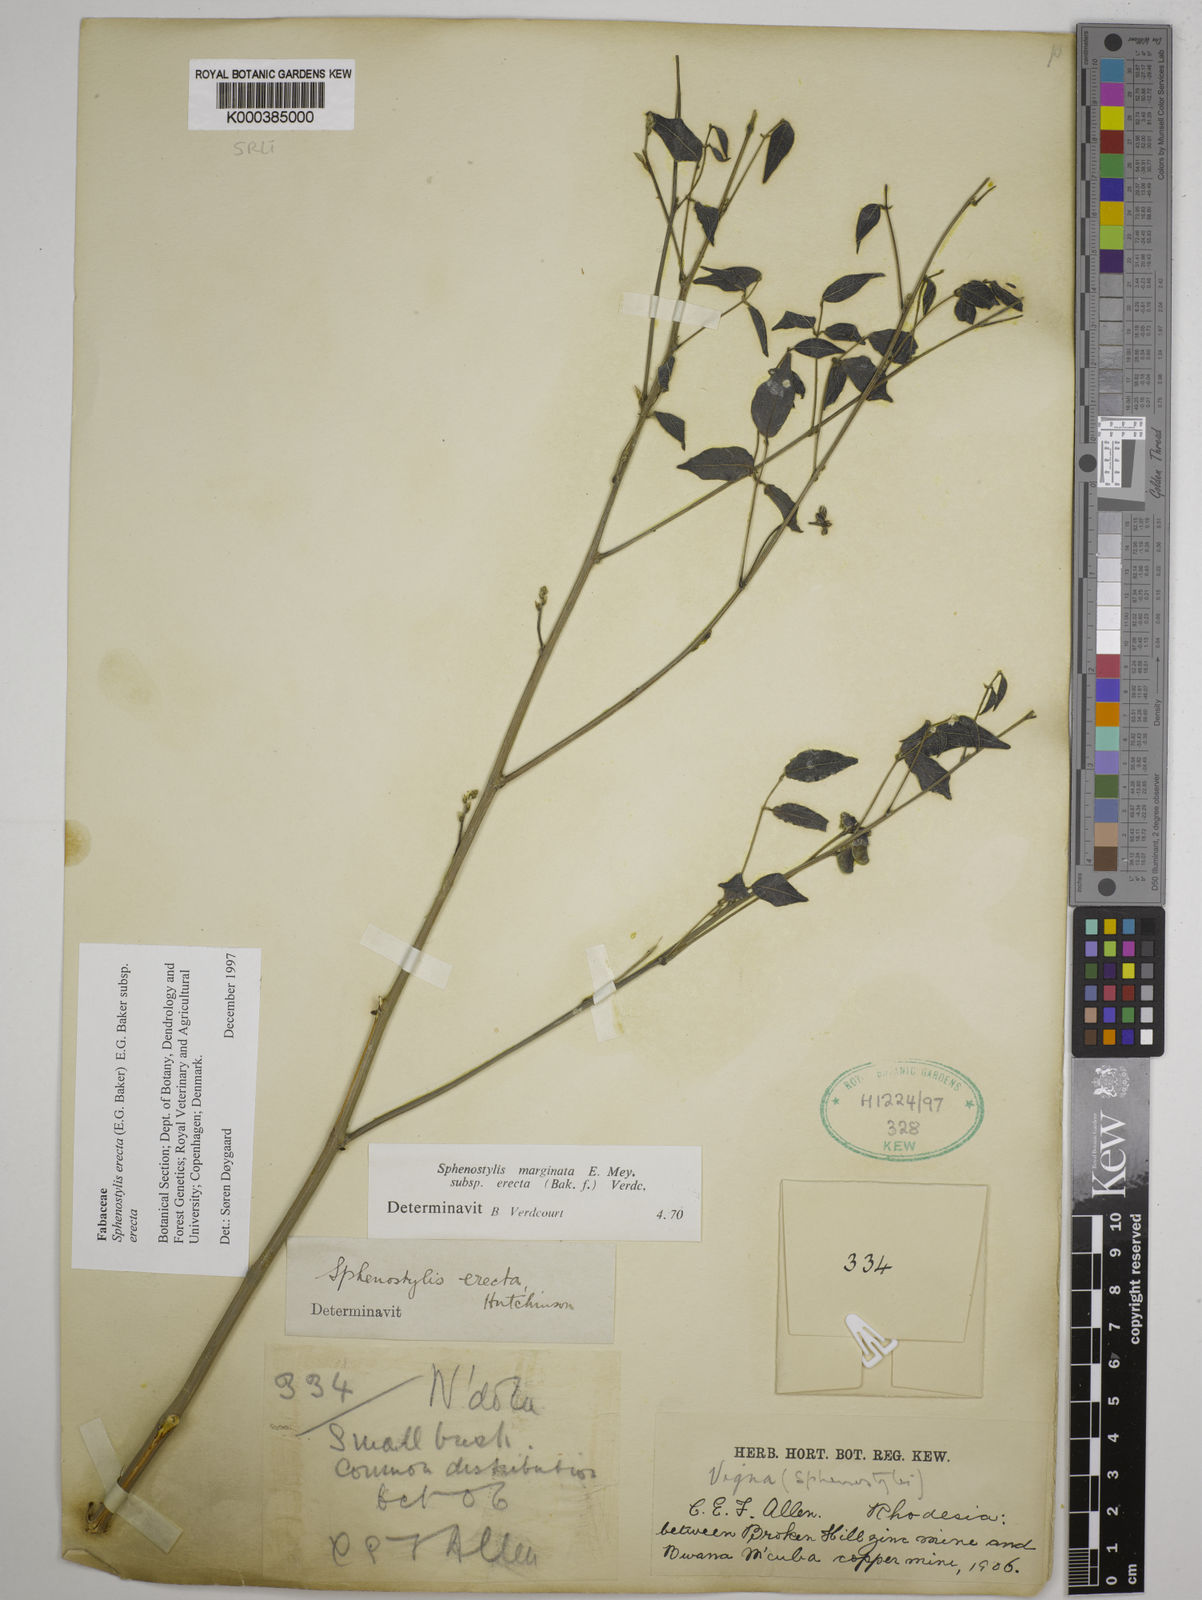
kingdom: Plantae
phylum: Tracheophyta
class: Magnoliopsida
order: Fabales
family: Fabaceae
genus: Sphenostylis
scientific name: Sphenostylis erecta
